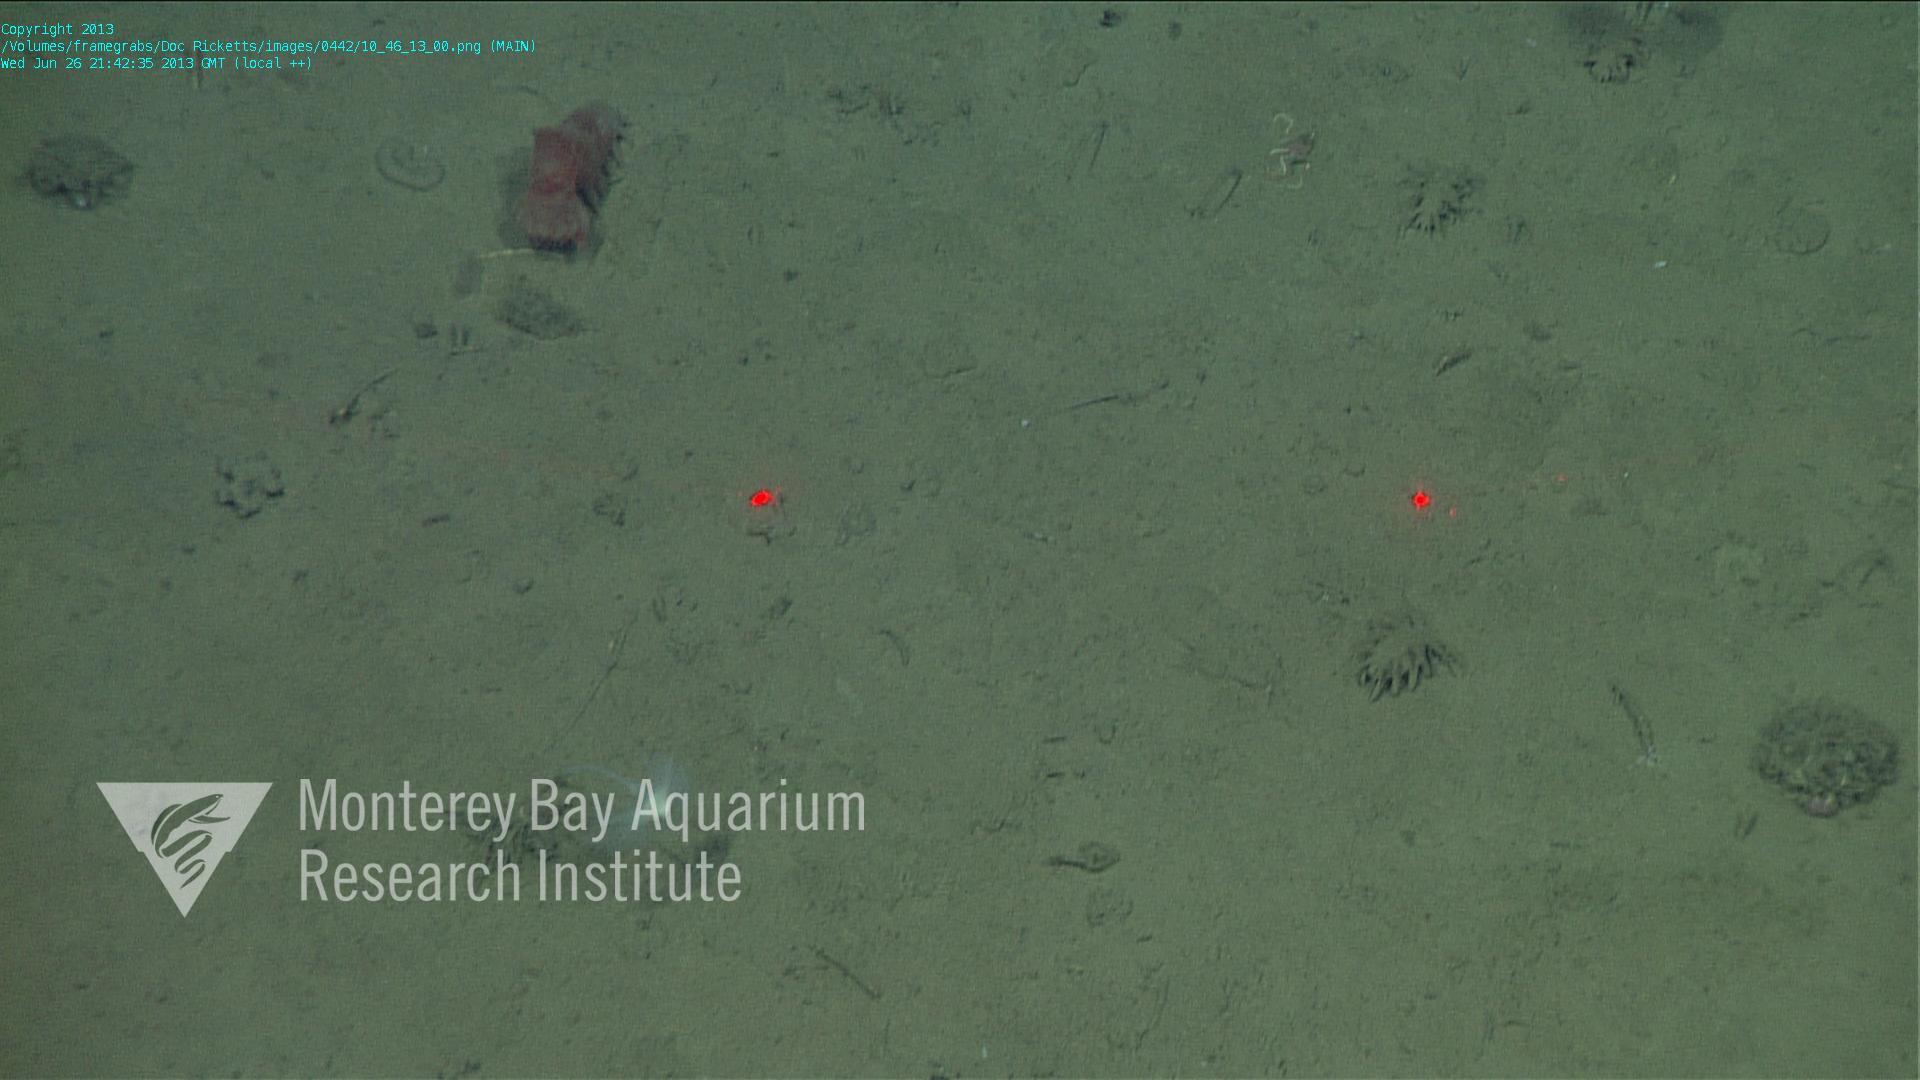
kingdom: Animalia
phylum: Porifera
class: Demospongiae
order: Poecilosclerida
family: Cladorhizidae
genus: Cladorhiza
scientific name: Cladorhiza
